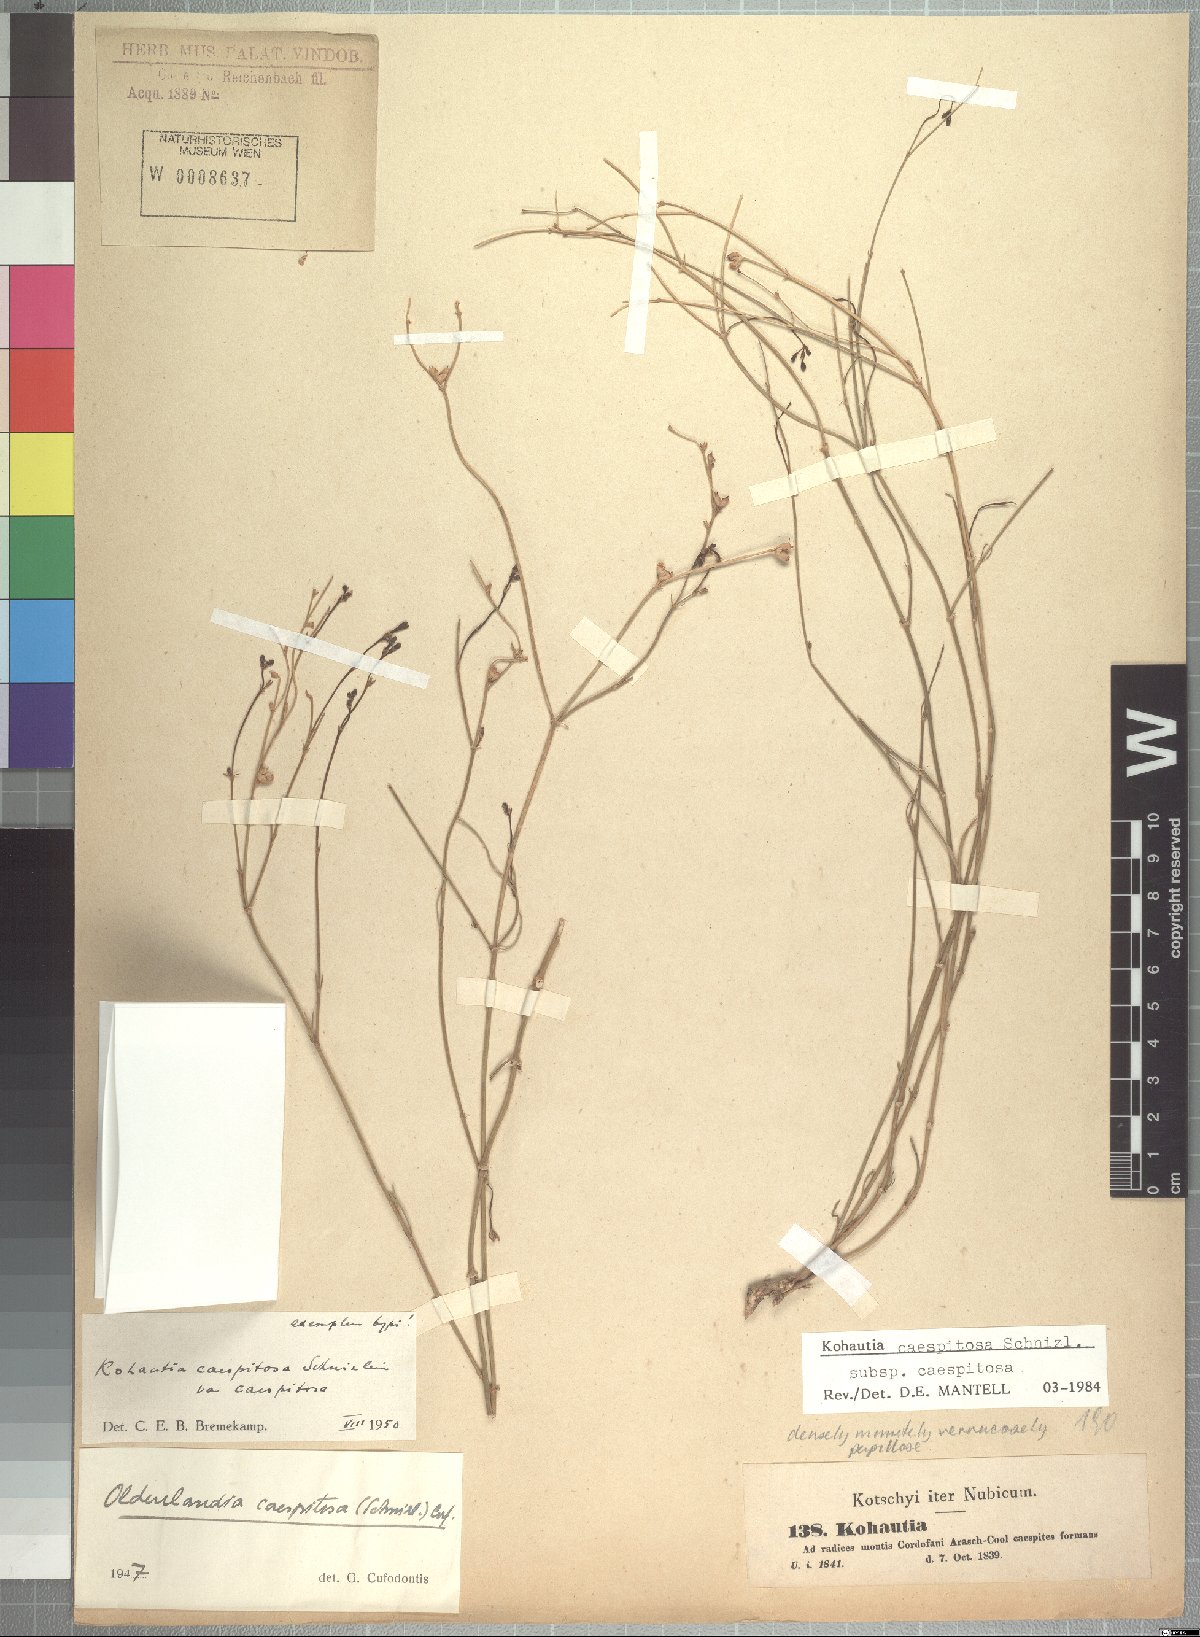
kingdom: Plantae
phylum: Tracheophyta
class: Magnoliopsida
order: Gentianales
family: Rubiaceae
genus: Kohautia
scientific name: Kohautia caespitosa
